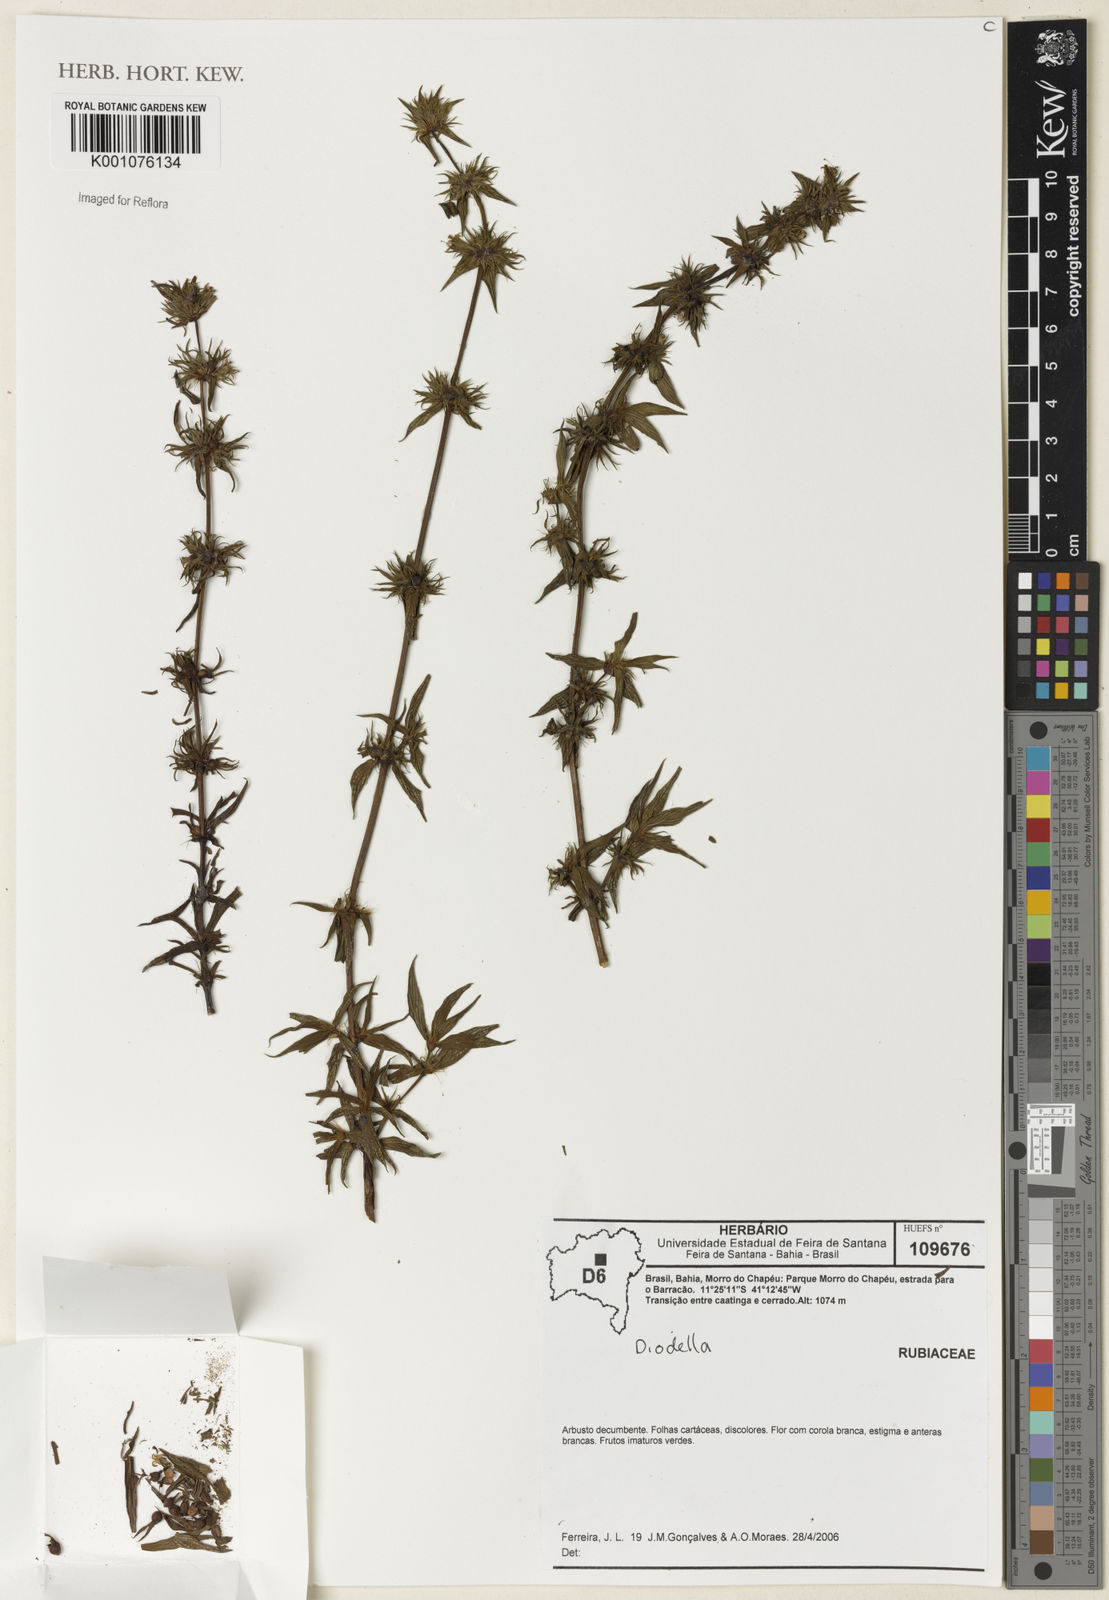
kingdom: Plantae
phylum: Tracheophyta
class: Magnoliopsida
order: Gentianales
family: Rubiaceae
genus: Hexasepalum
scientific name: Hexasepalum
